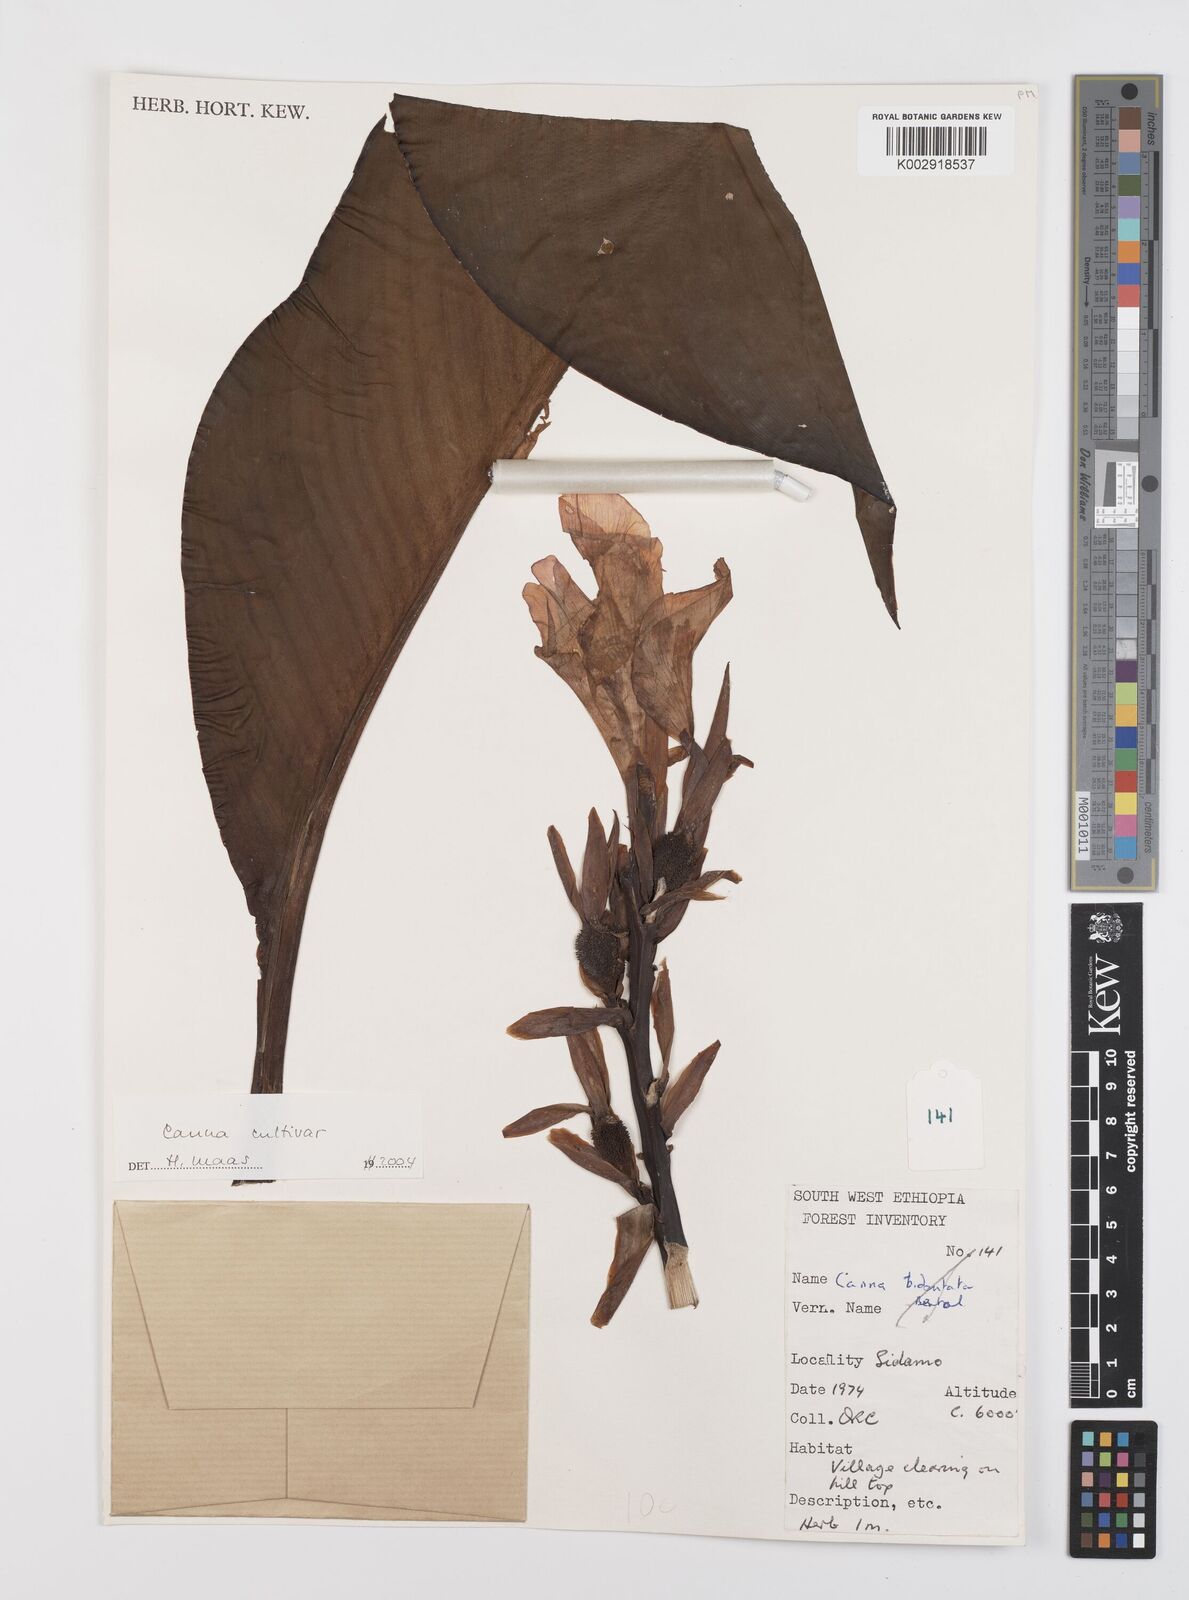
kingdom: Plantae
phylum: Tracheophyta
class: Liliopsida
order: Zingiberales
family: Cannaceae
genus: Canna
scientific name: Canna
